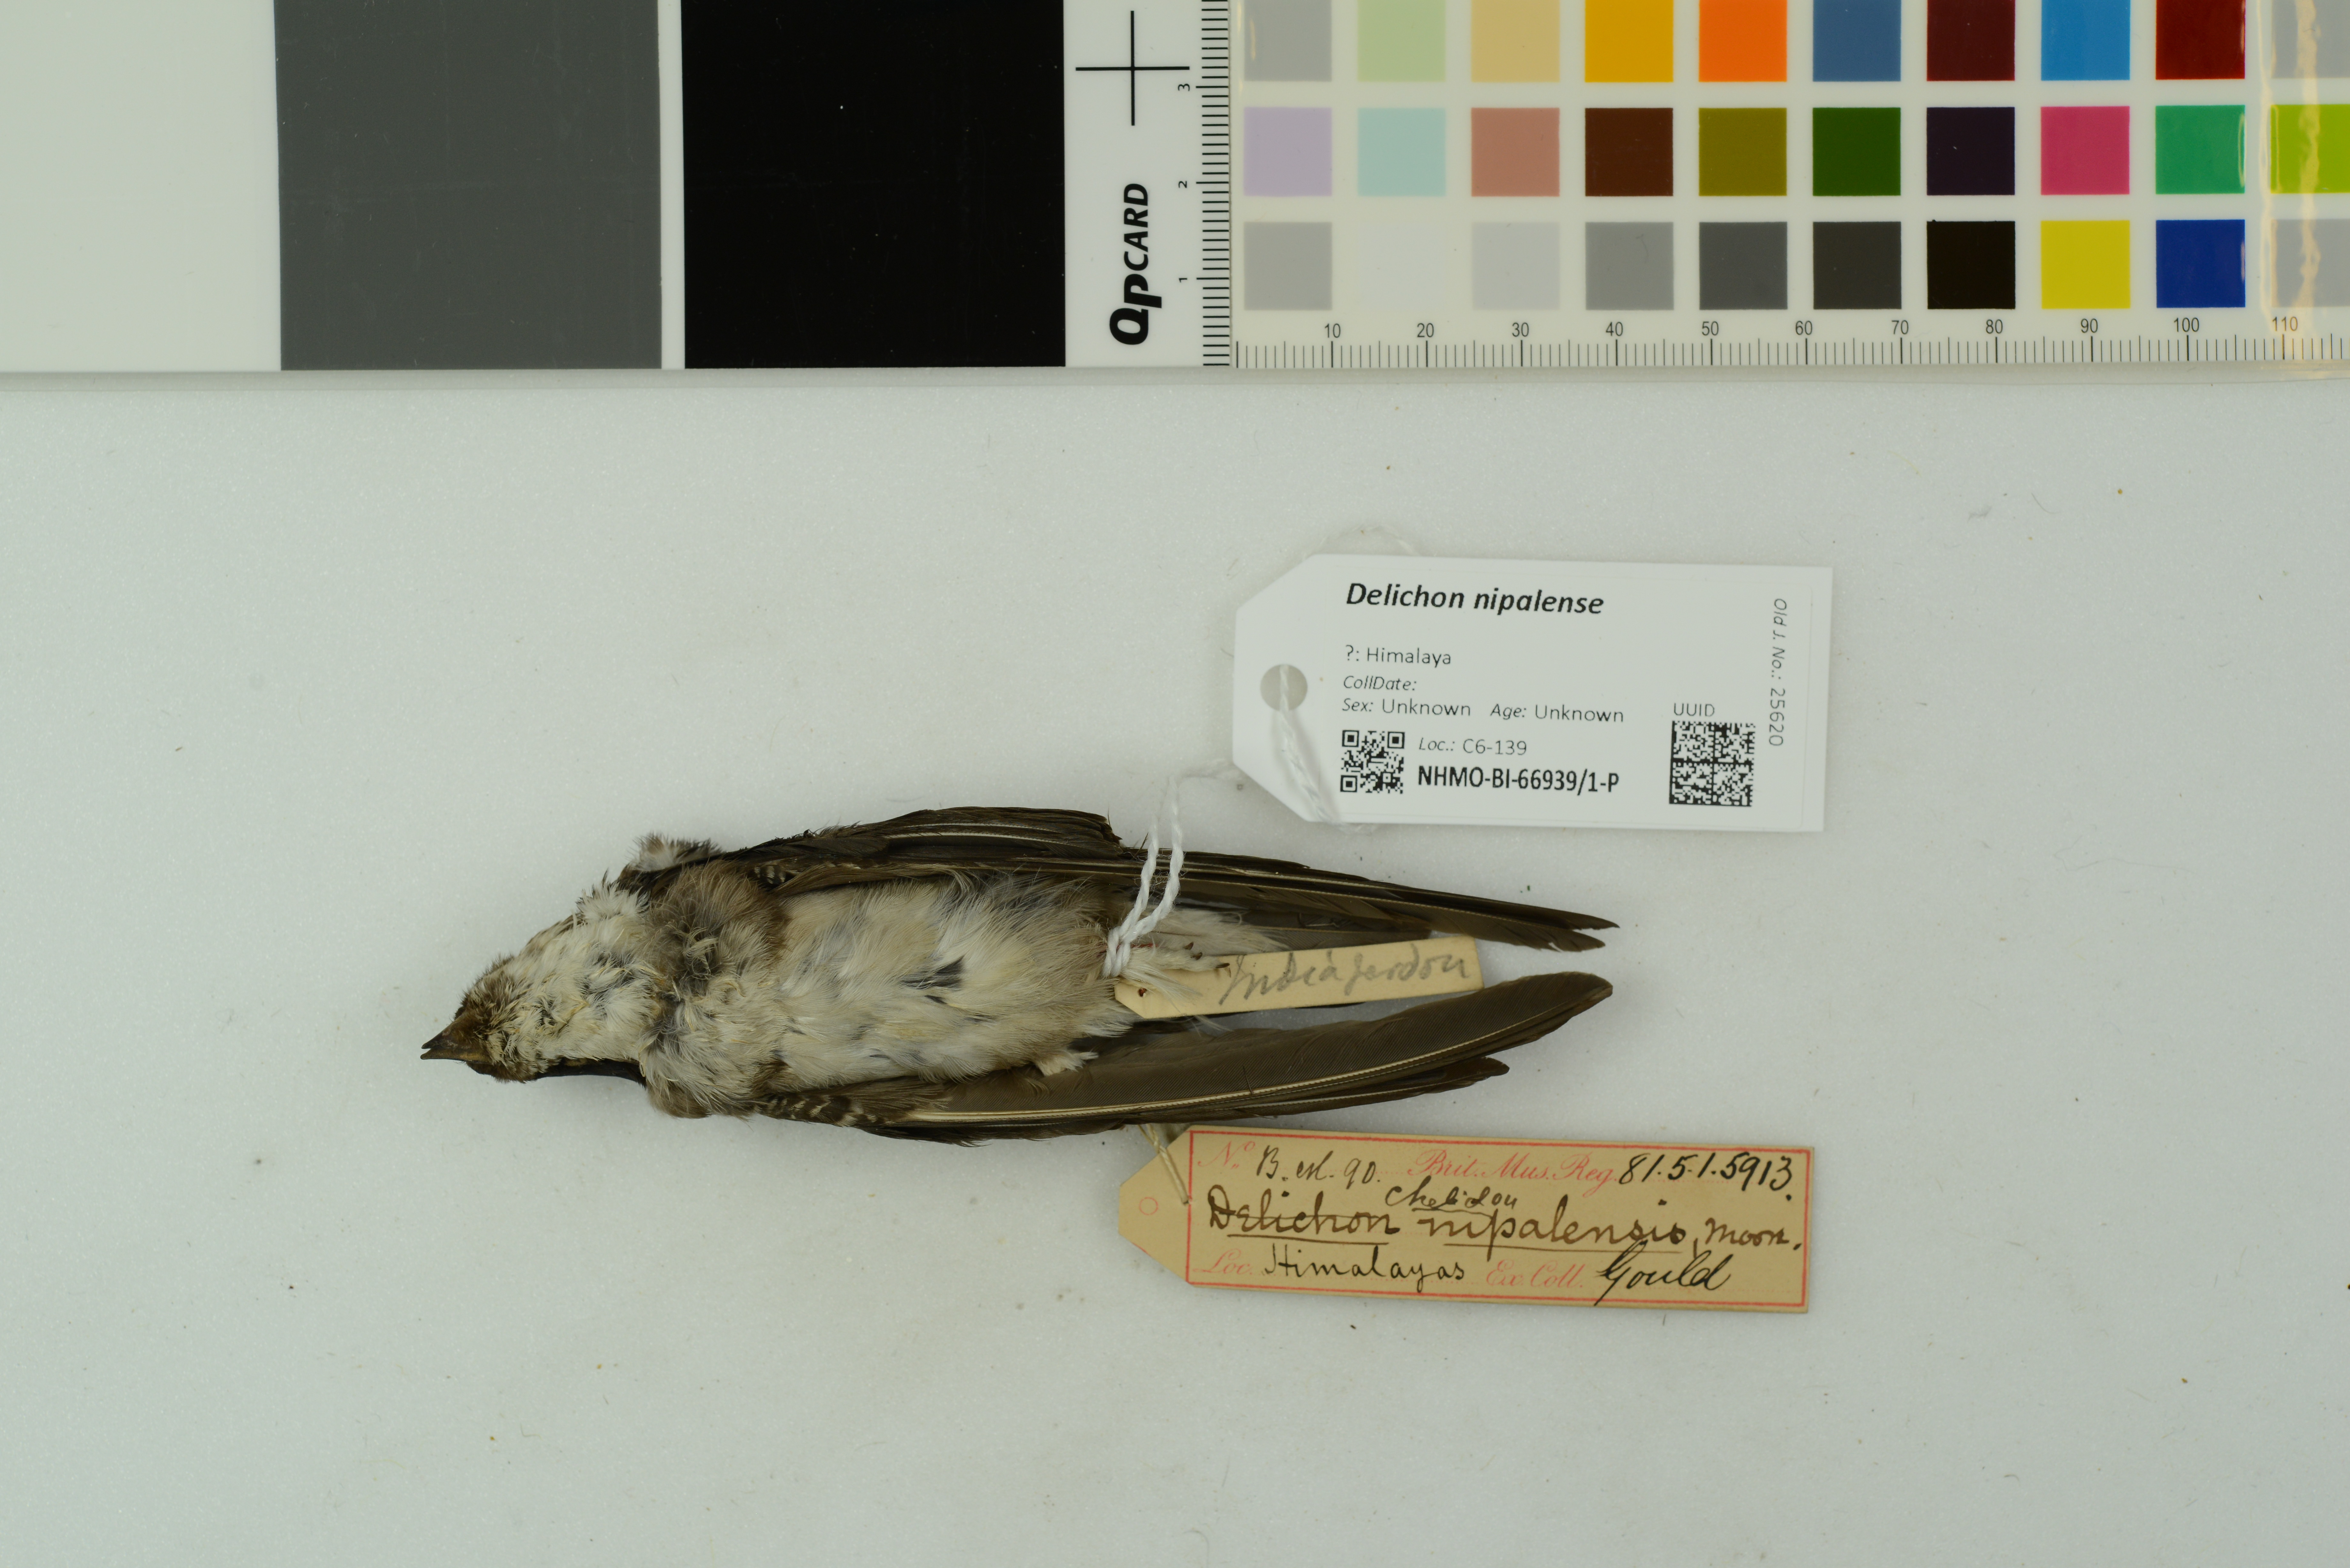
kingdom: Animalia
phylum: Chordata
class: Aves
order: Passeriformes
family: Hirundinidae
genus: Delichon
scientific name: Delichon nipalense
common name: Nepal house martin
